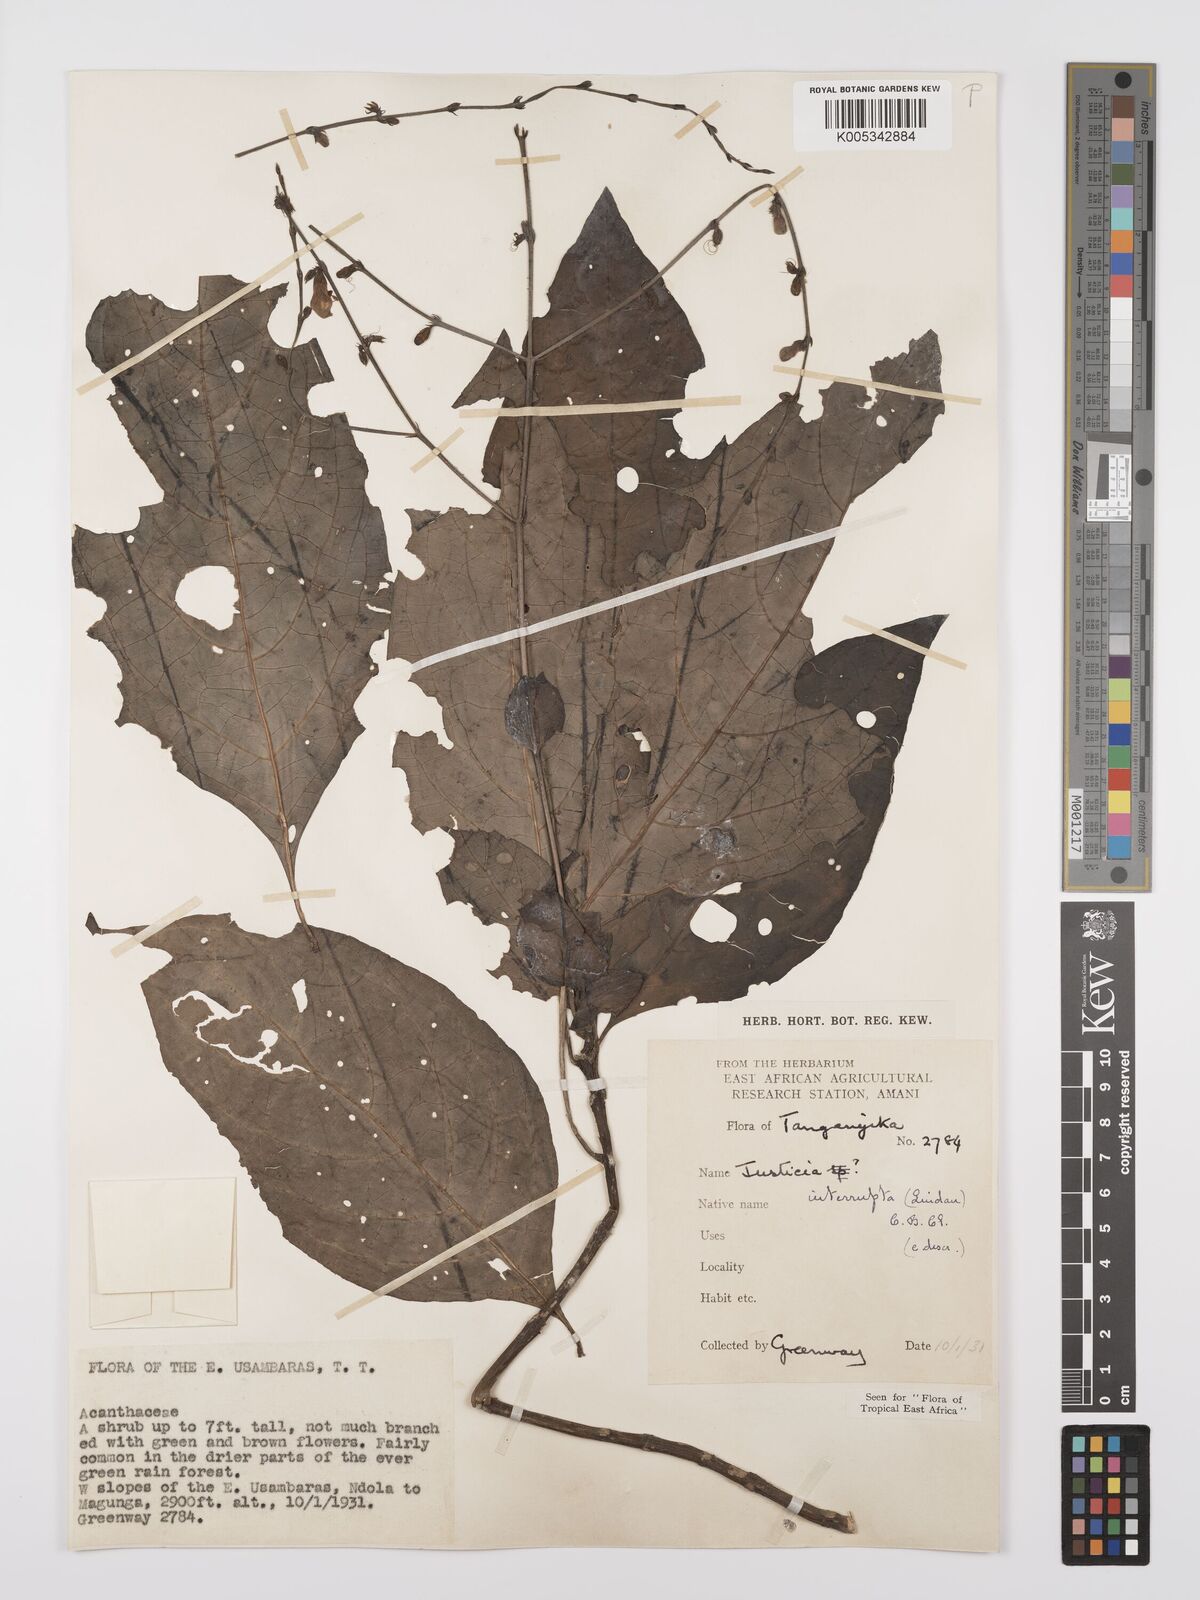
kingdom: Plantae
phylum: Tracheophyta
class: Magnoliopsida
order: Lamiales
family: Acanthaceae
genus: Justicia
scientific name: Justicia plectranthoides
